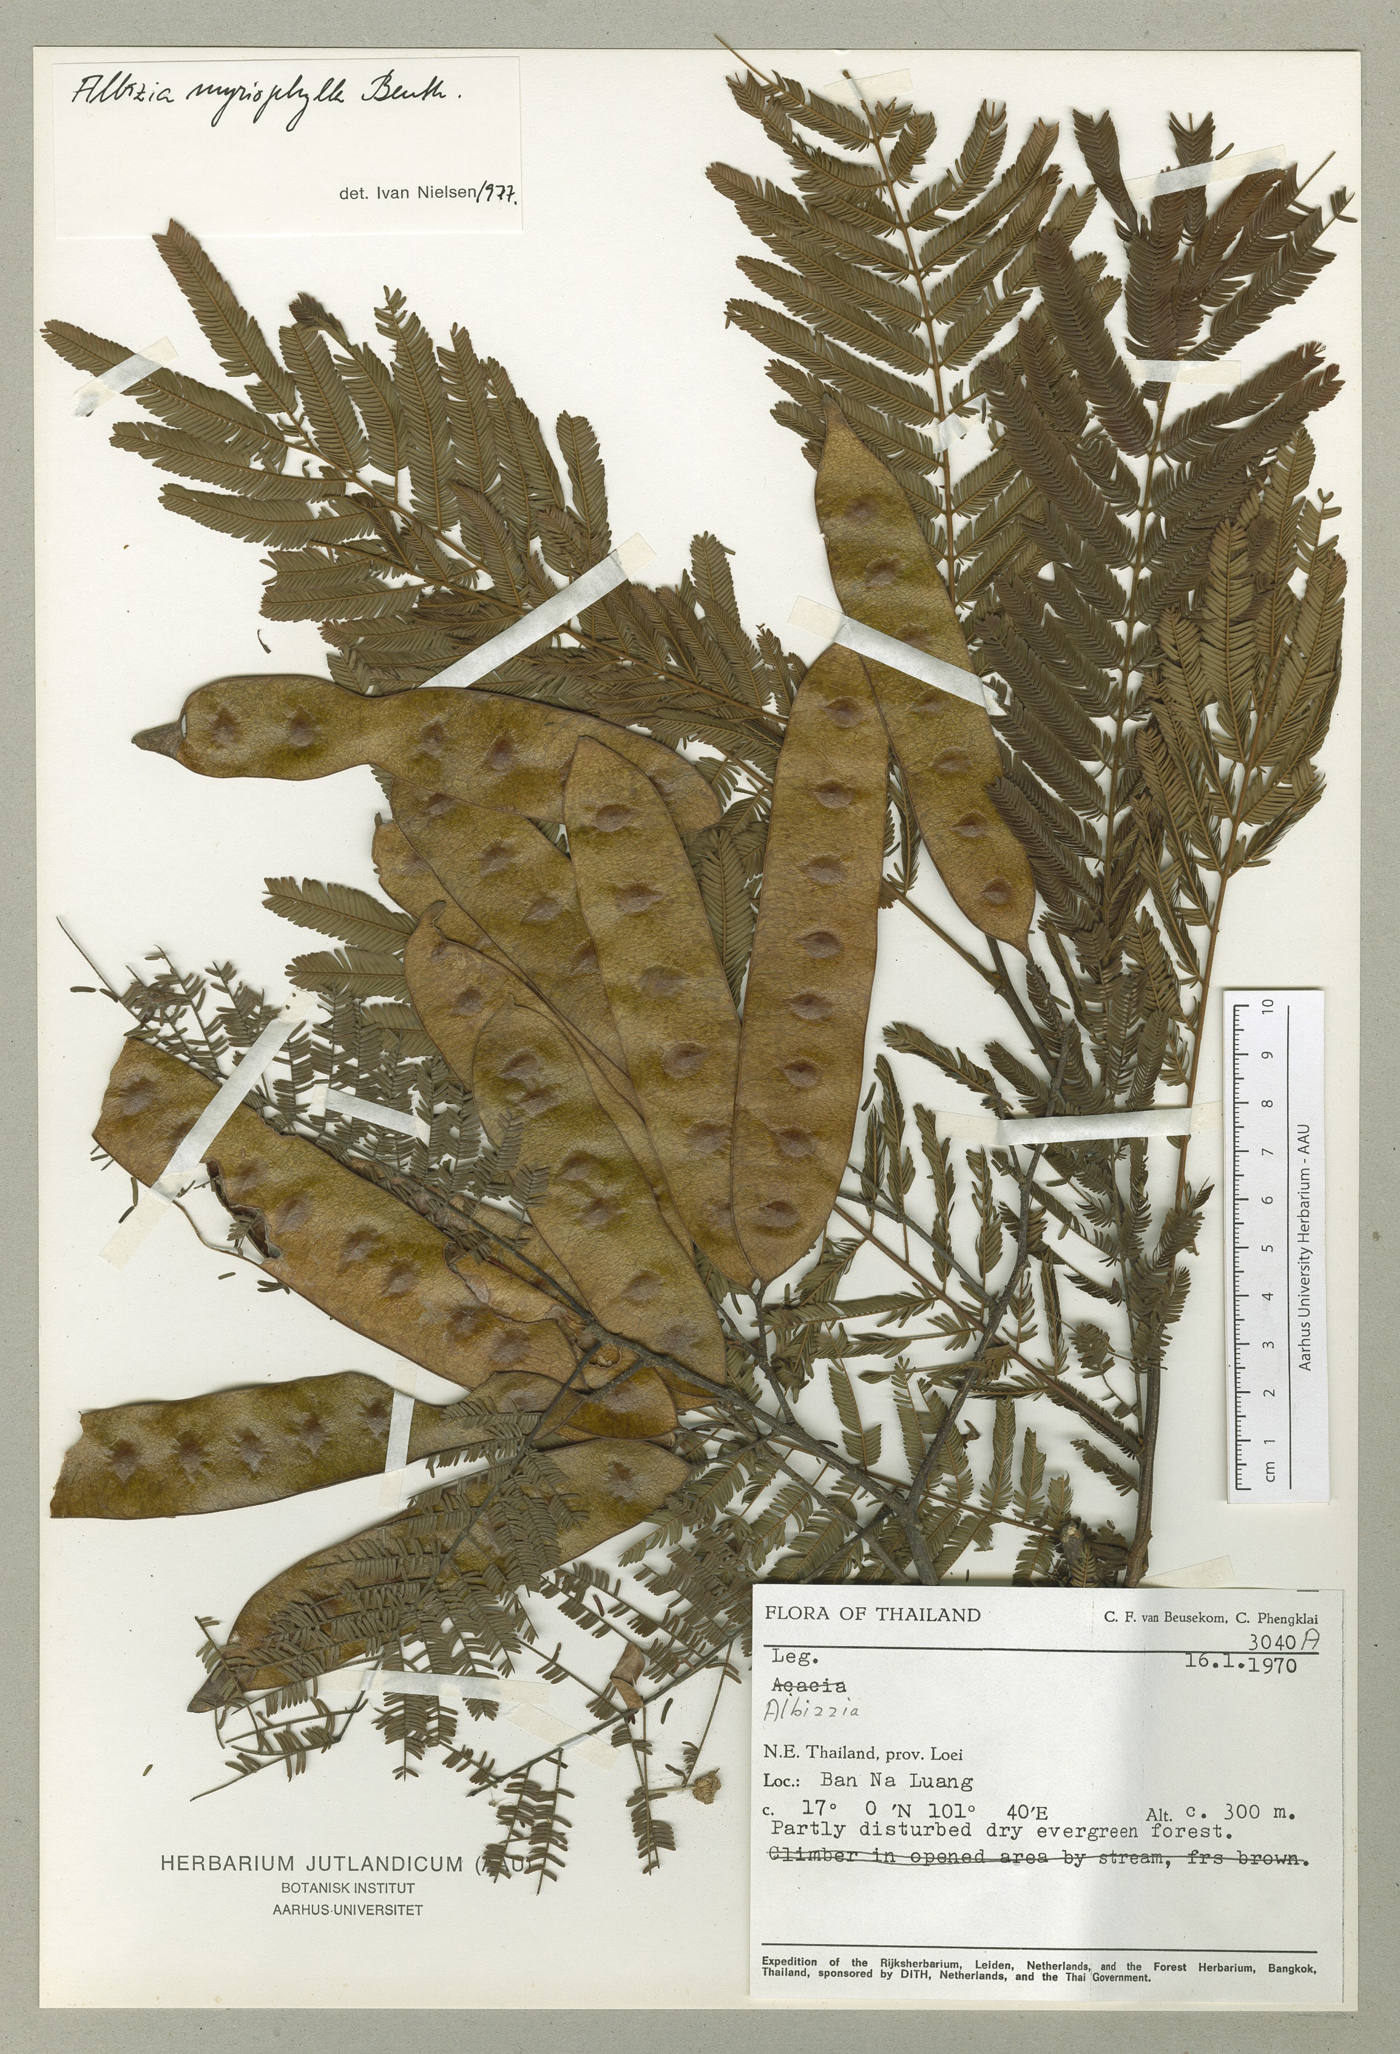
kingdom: Plantae
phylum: Tracheophyta
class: Magnoliopsida
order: Fabales
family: Fabaceae
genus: Albizia
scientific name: Albizia myriophylla
